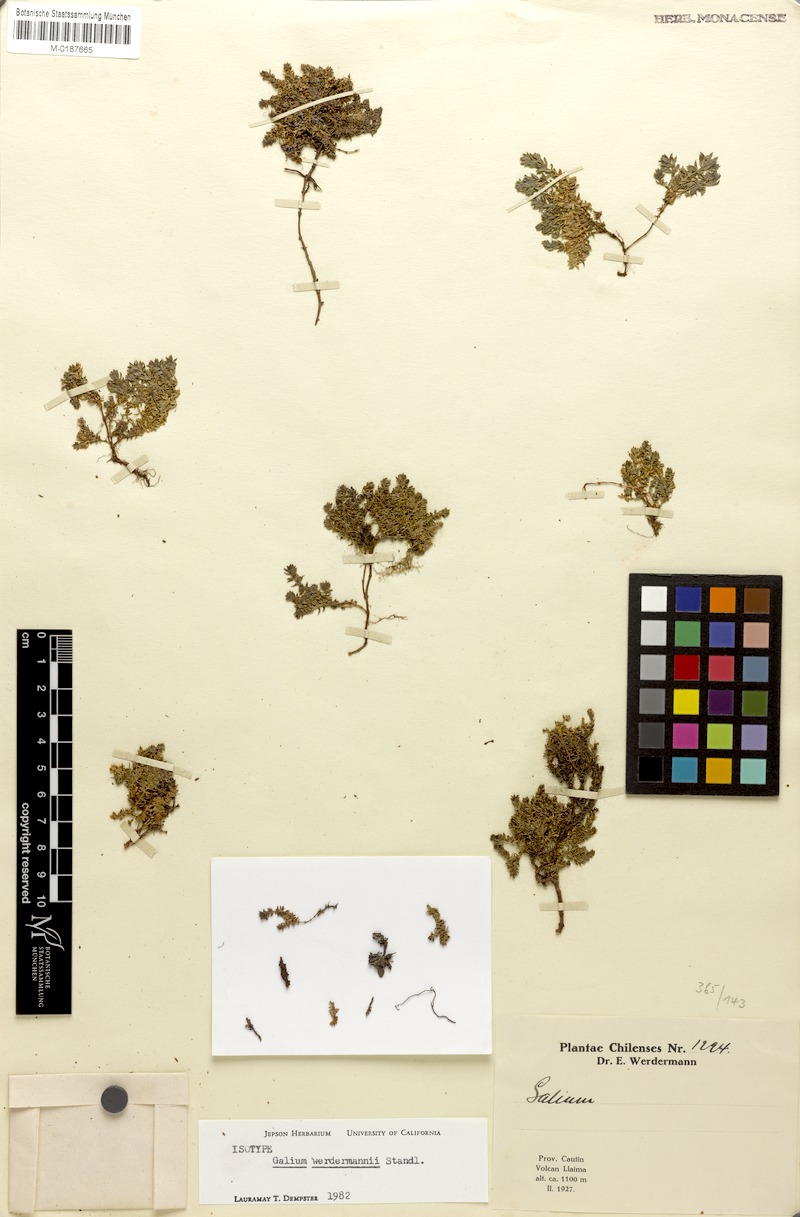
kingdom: Plantae
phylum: Tracheophyta
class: Magnoliopsida
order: Gentianales
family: Rubiaceae
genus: Galium
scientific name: Galium werdermannii
